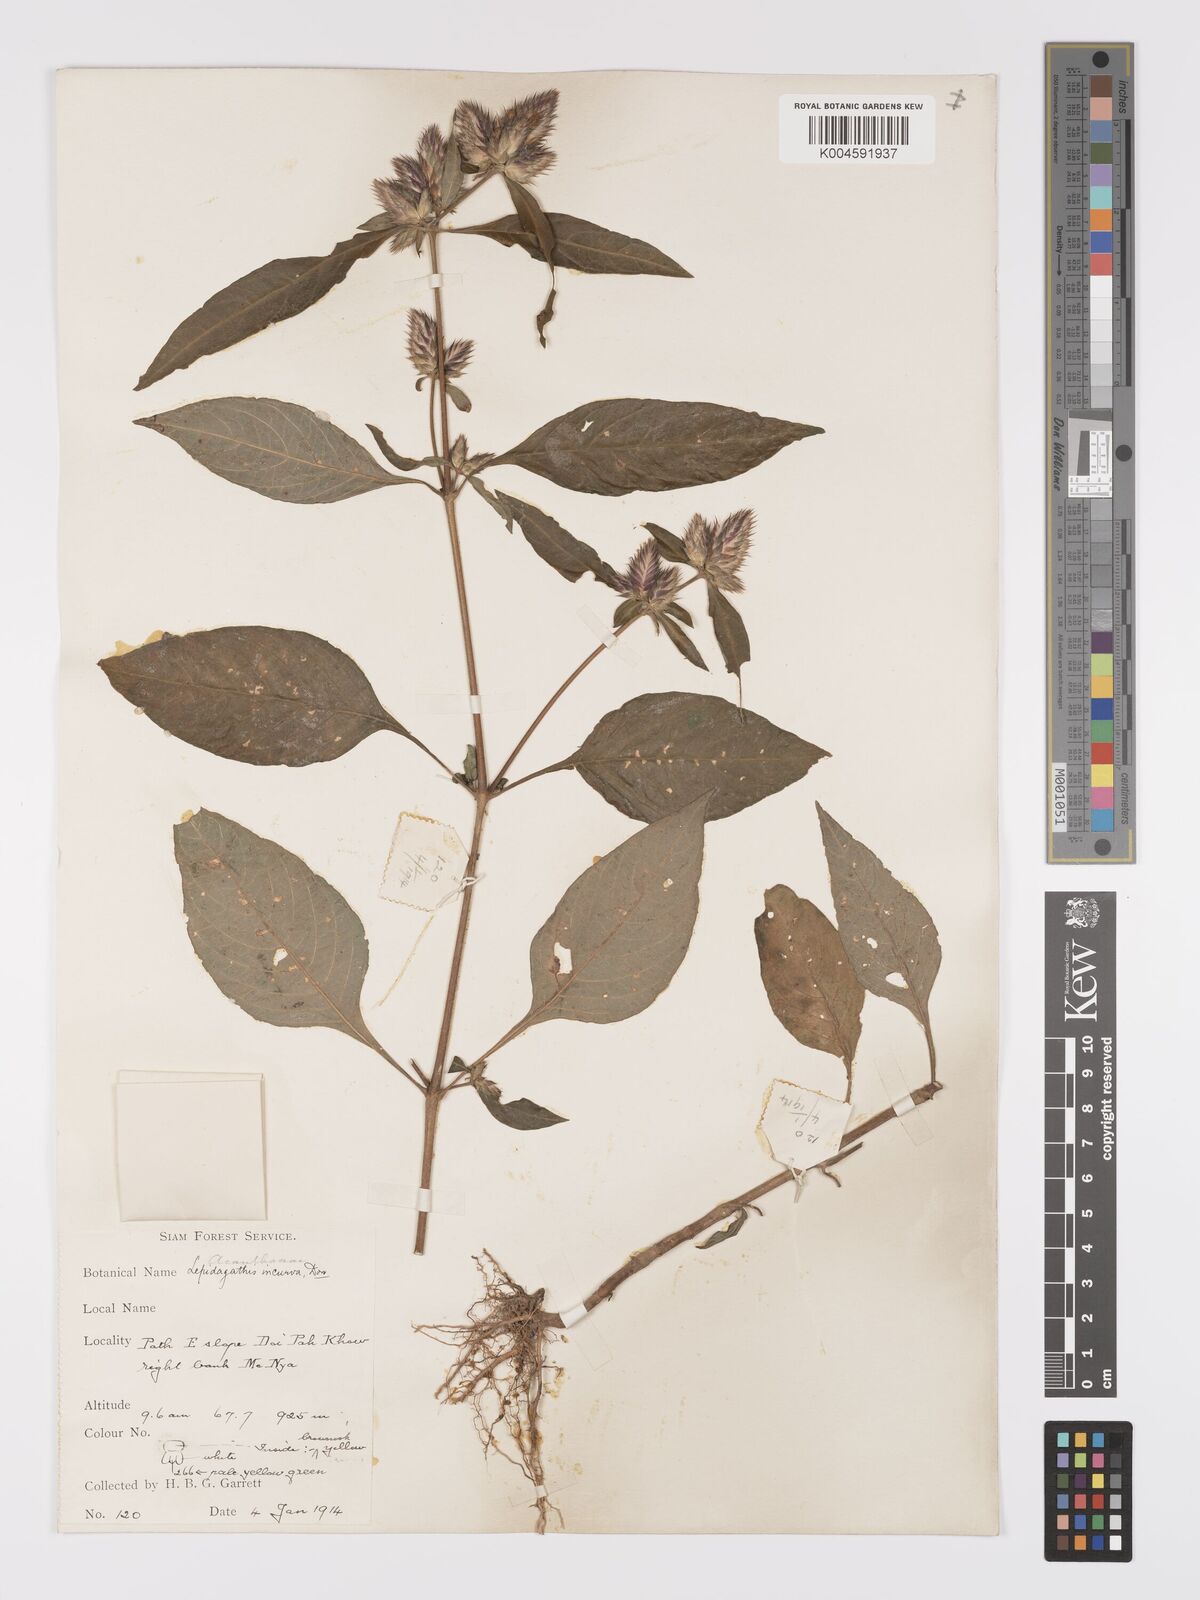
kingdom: Plantae
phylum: Tracheophyta
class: Magnoliopsida
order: Lamiales
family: Acanthaceae
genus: Lepidagathis
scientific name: Lepidagathis incurva
